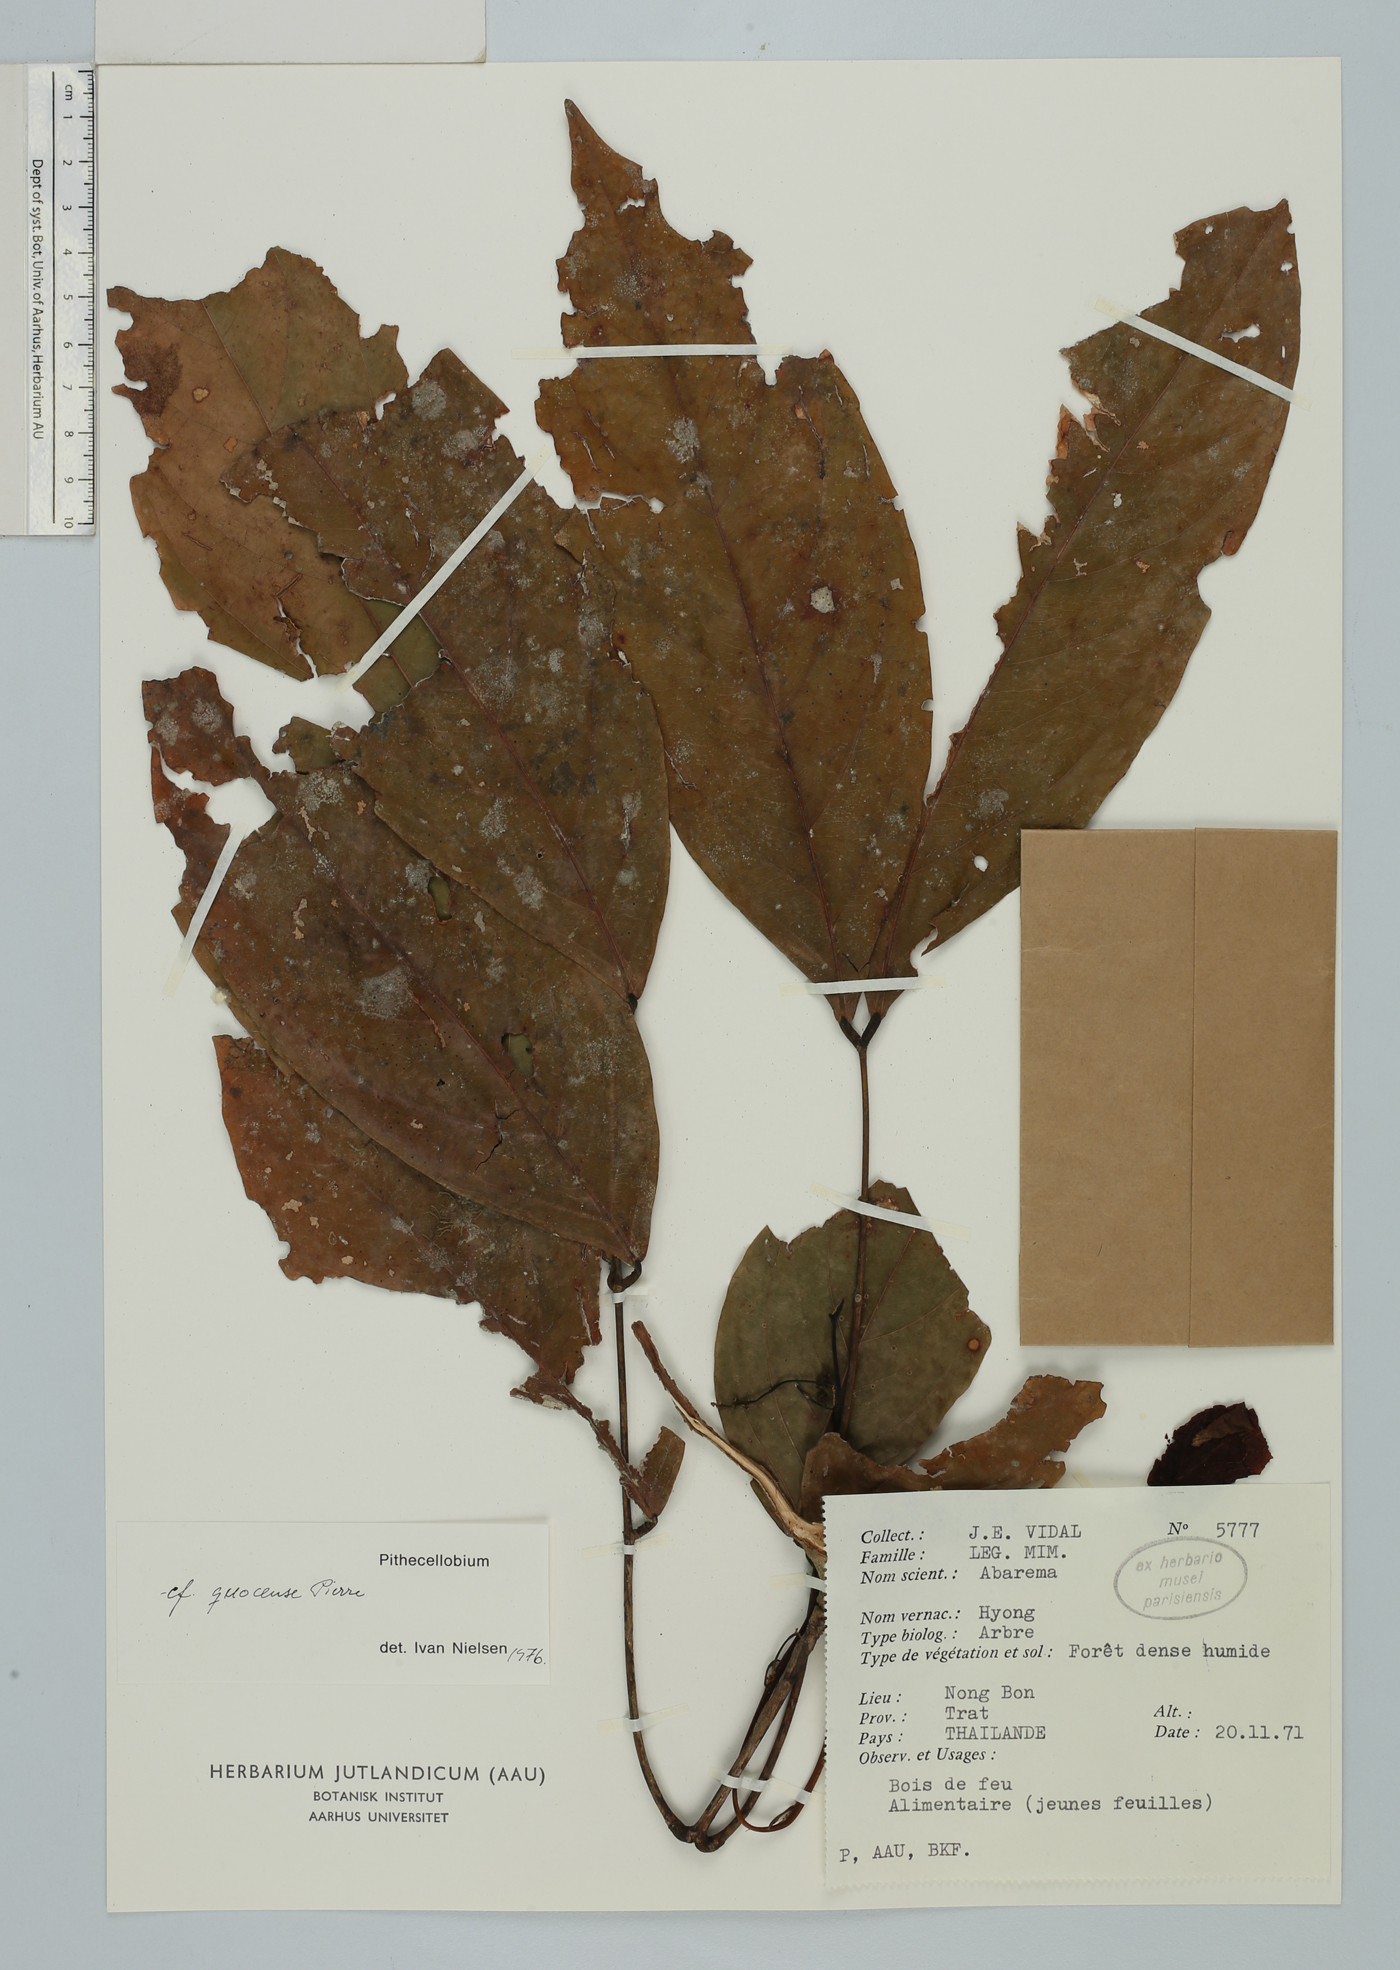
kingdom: Plantae
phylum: Tracheophyta
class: Magnoliopsida
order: Fabales
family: Fabaceae
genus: Archidendron
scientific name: Archidendron quocense
